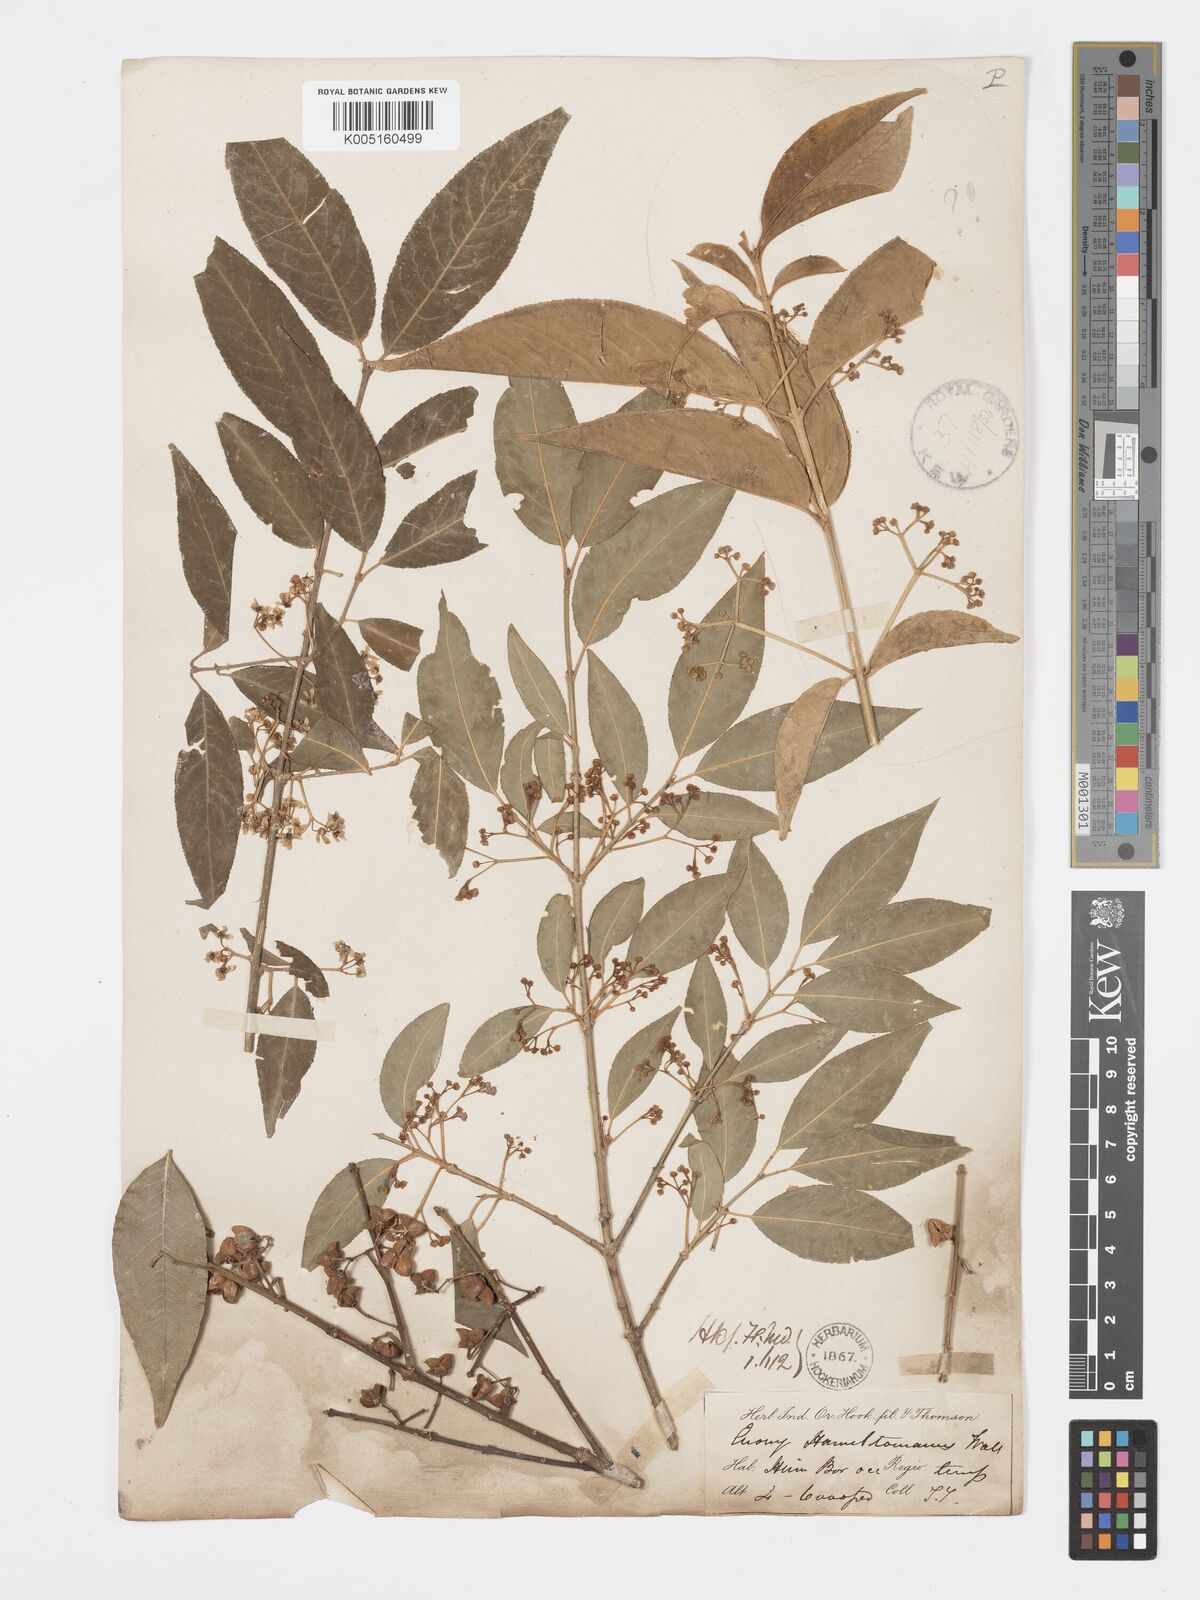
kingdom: Plantae
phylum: Tracheophyta
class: Magnoliopsida
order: Celastrales
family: Celastraceae
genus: Euonymus
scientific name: Euonymus
